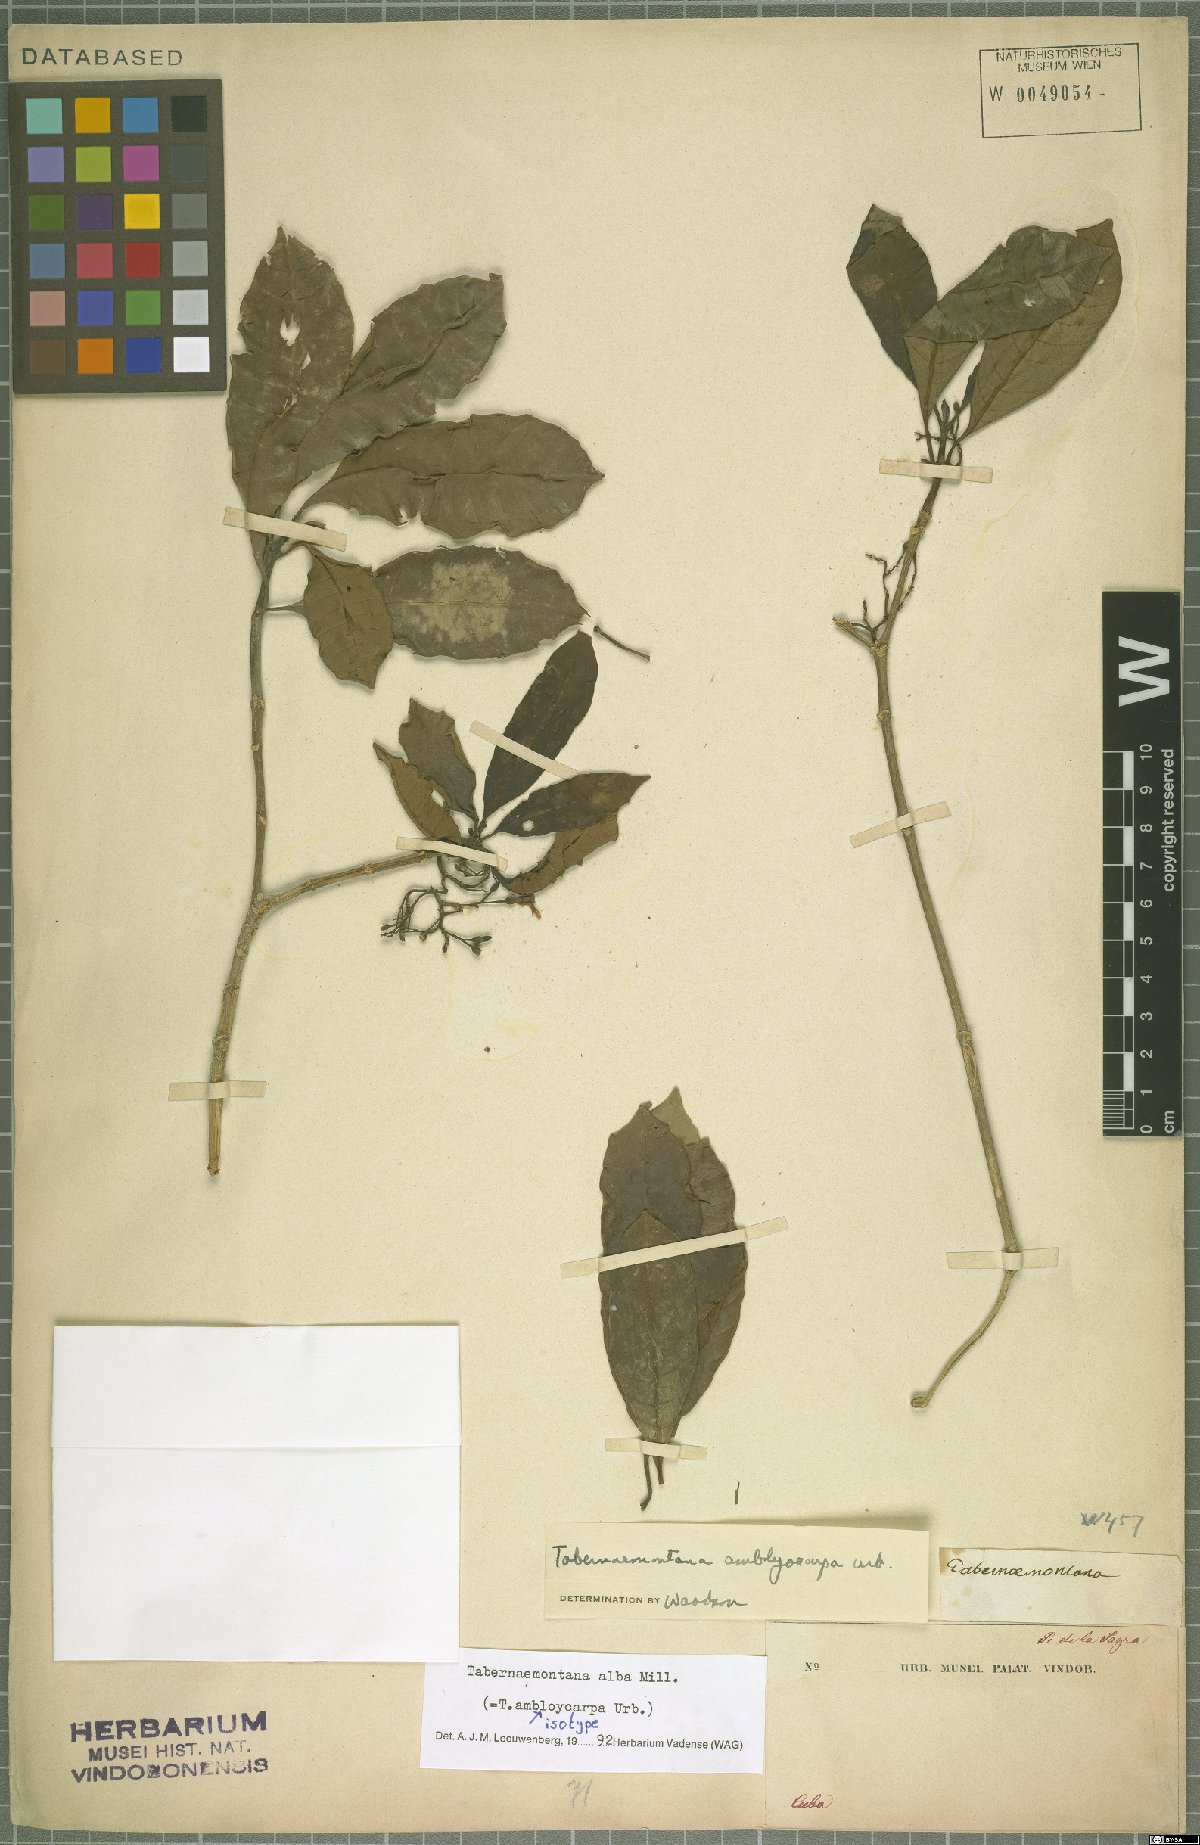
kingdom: Plantae
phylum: Tracheophyta
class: Magnoliopsida
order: Gentianales
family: Apocynaceae
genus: Tabernaemontana
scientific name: Tabernaemontana alba
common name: White milkwood
